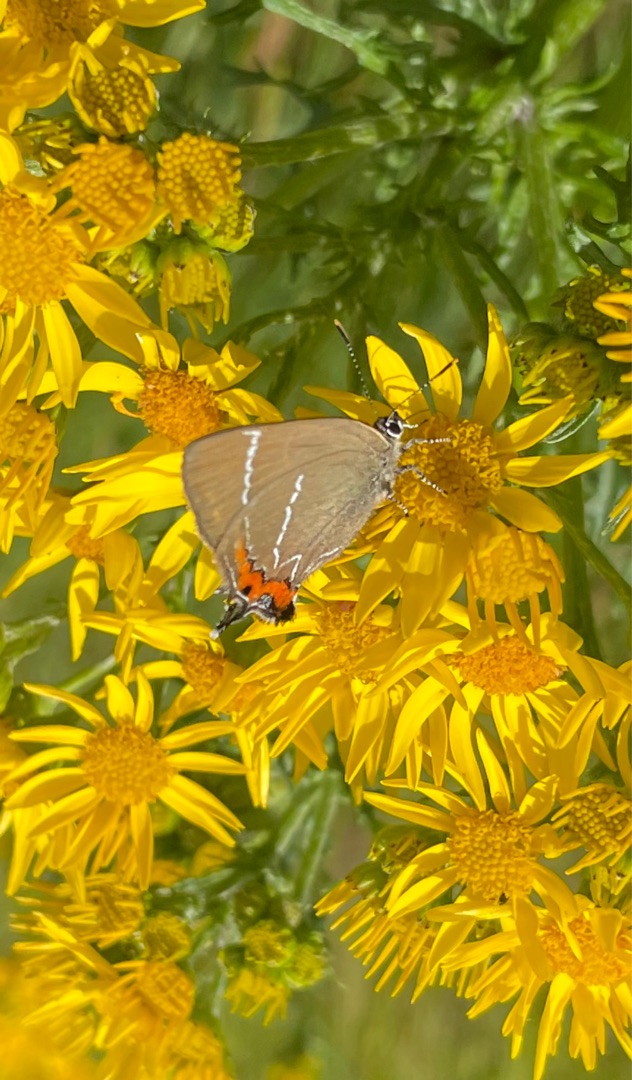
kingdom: Animalia
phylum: Arthropoda
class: Insecta
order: Lepidoptera
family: Lycaenidae
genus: Satyrium
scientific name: Satyrium w-album
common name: Det hvide W
